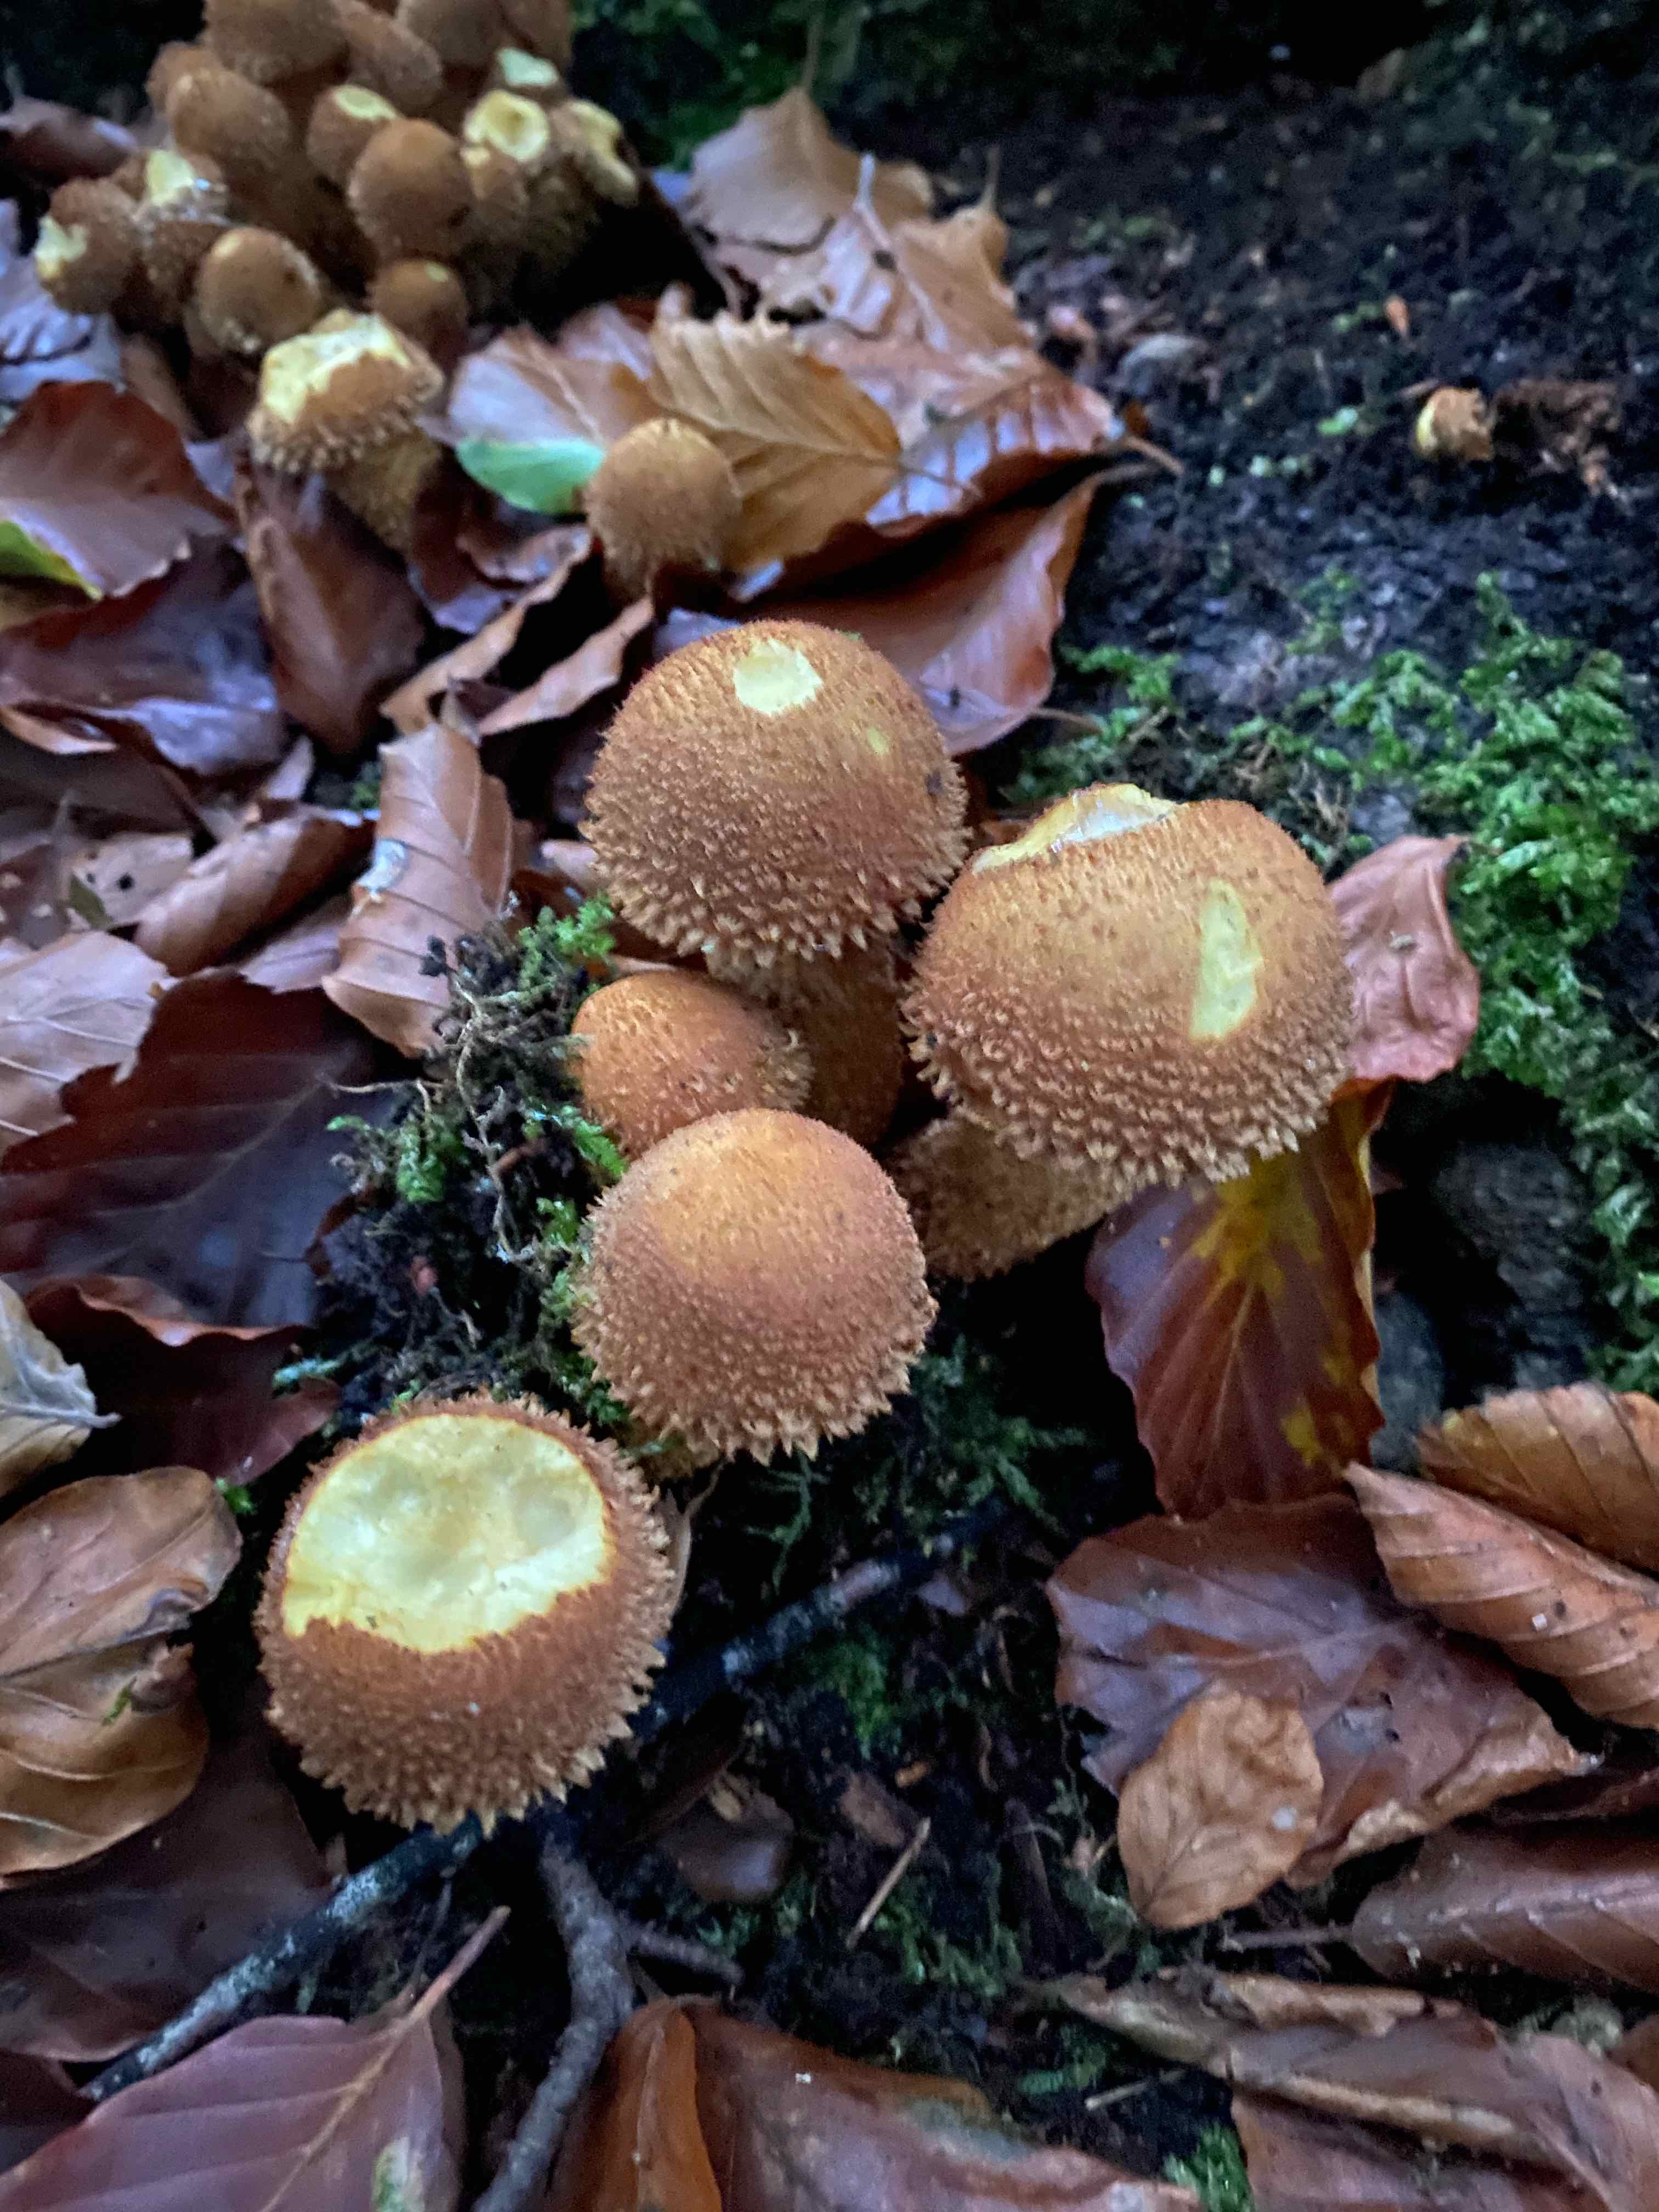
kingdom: Fungi
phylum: Basidiomycota
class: Agaricomycetes
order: Agaricales
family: Strophariaceae
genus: Pholiota
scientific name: Pholiota squarrosa
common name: krumskællet skælhat
